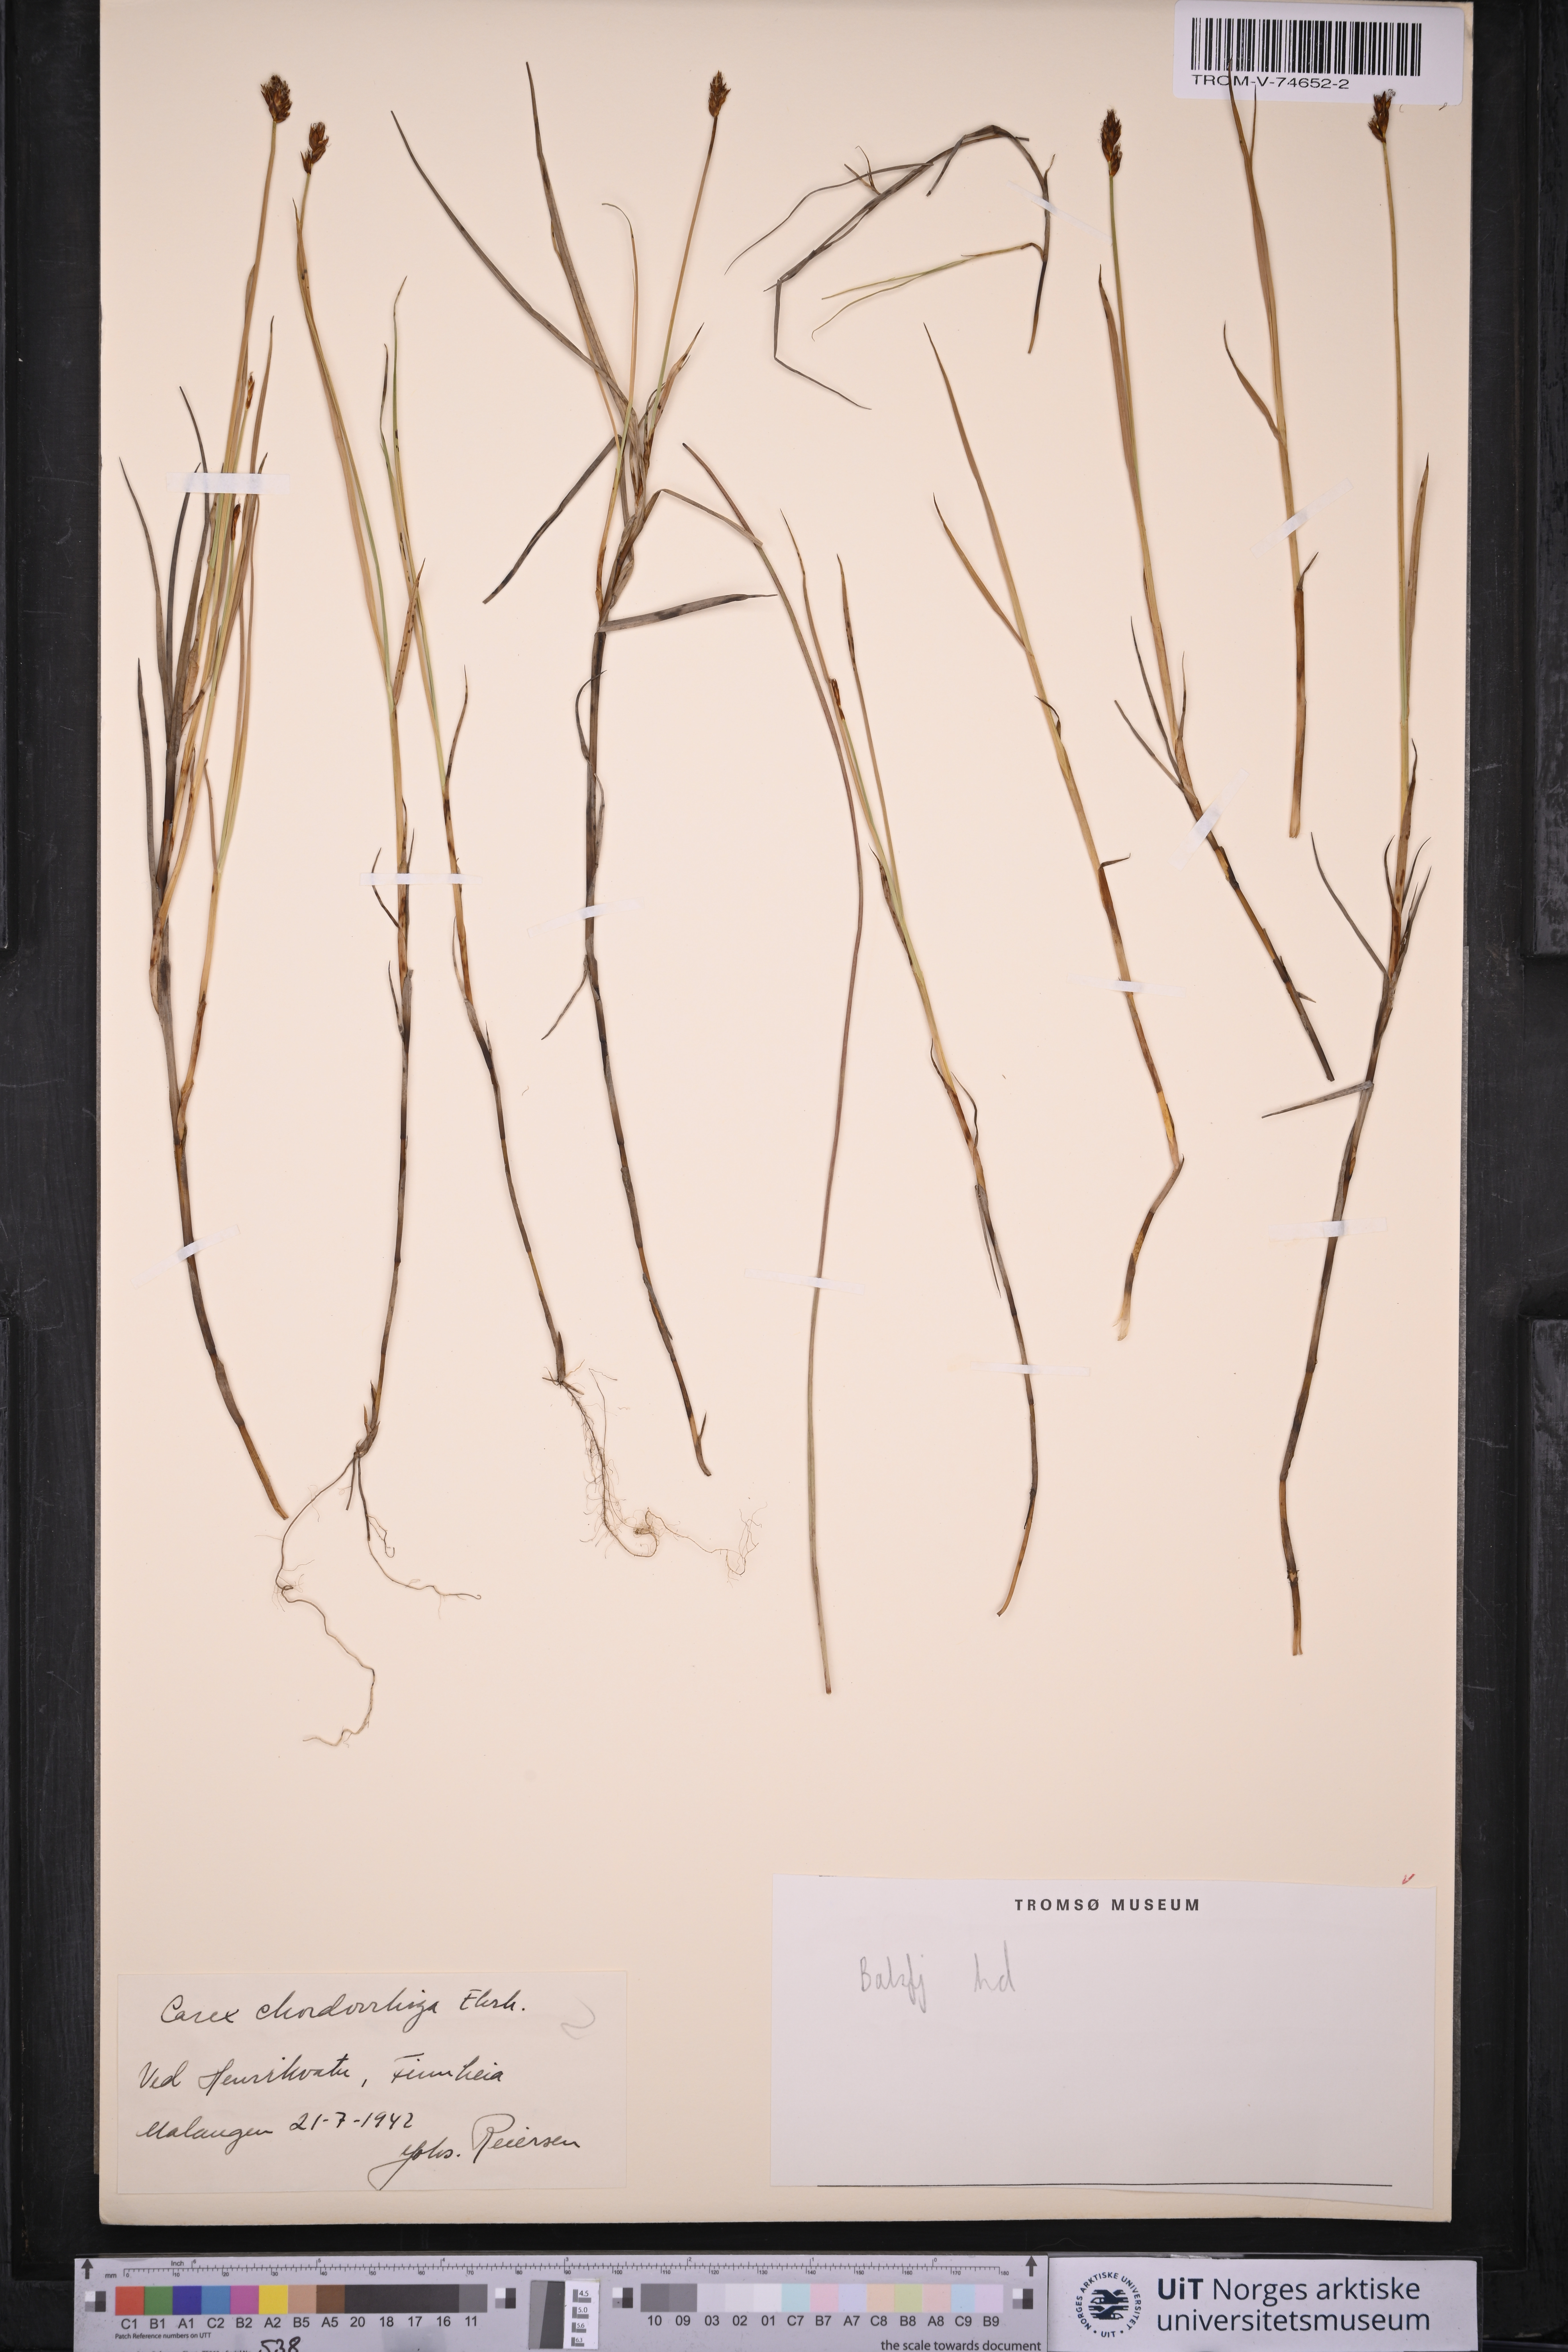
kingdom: Plantae
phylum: Tracheophyta
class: Liliopsida
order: Poales
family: Cyperaceae
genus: Carex
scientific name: Carex chordorrhiza
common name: String sedge
